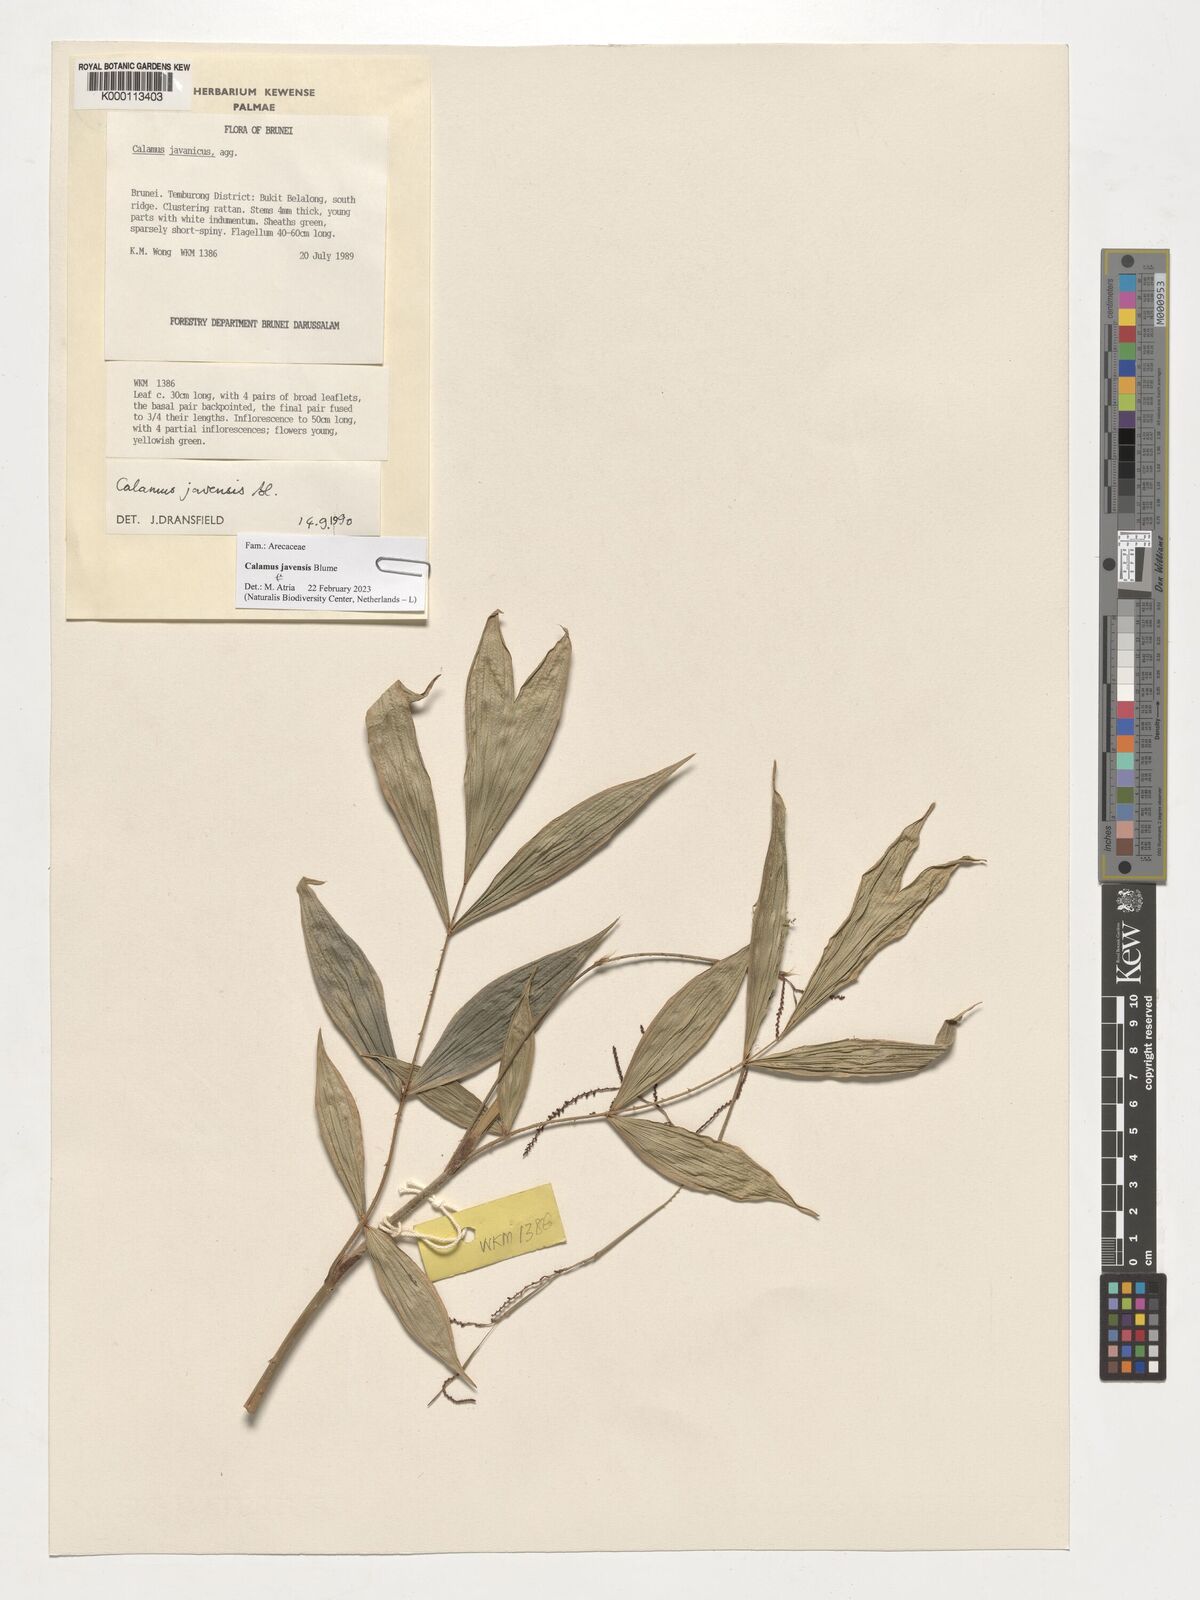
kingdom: Plantae
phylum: Tracheophyta
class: Liliopsida
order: Arecales
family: Arecaceae
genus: Calamus
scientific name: Calamus javensis
